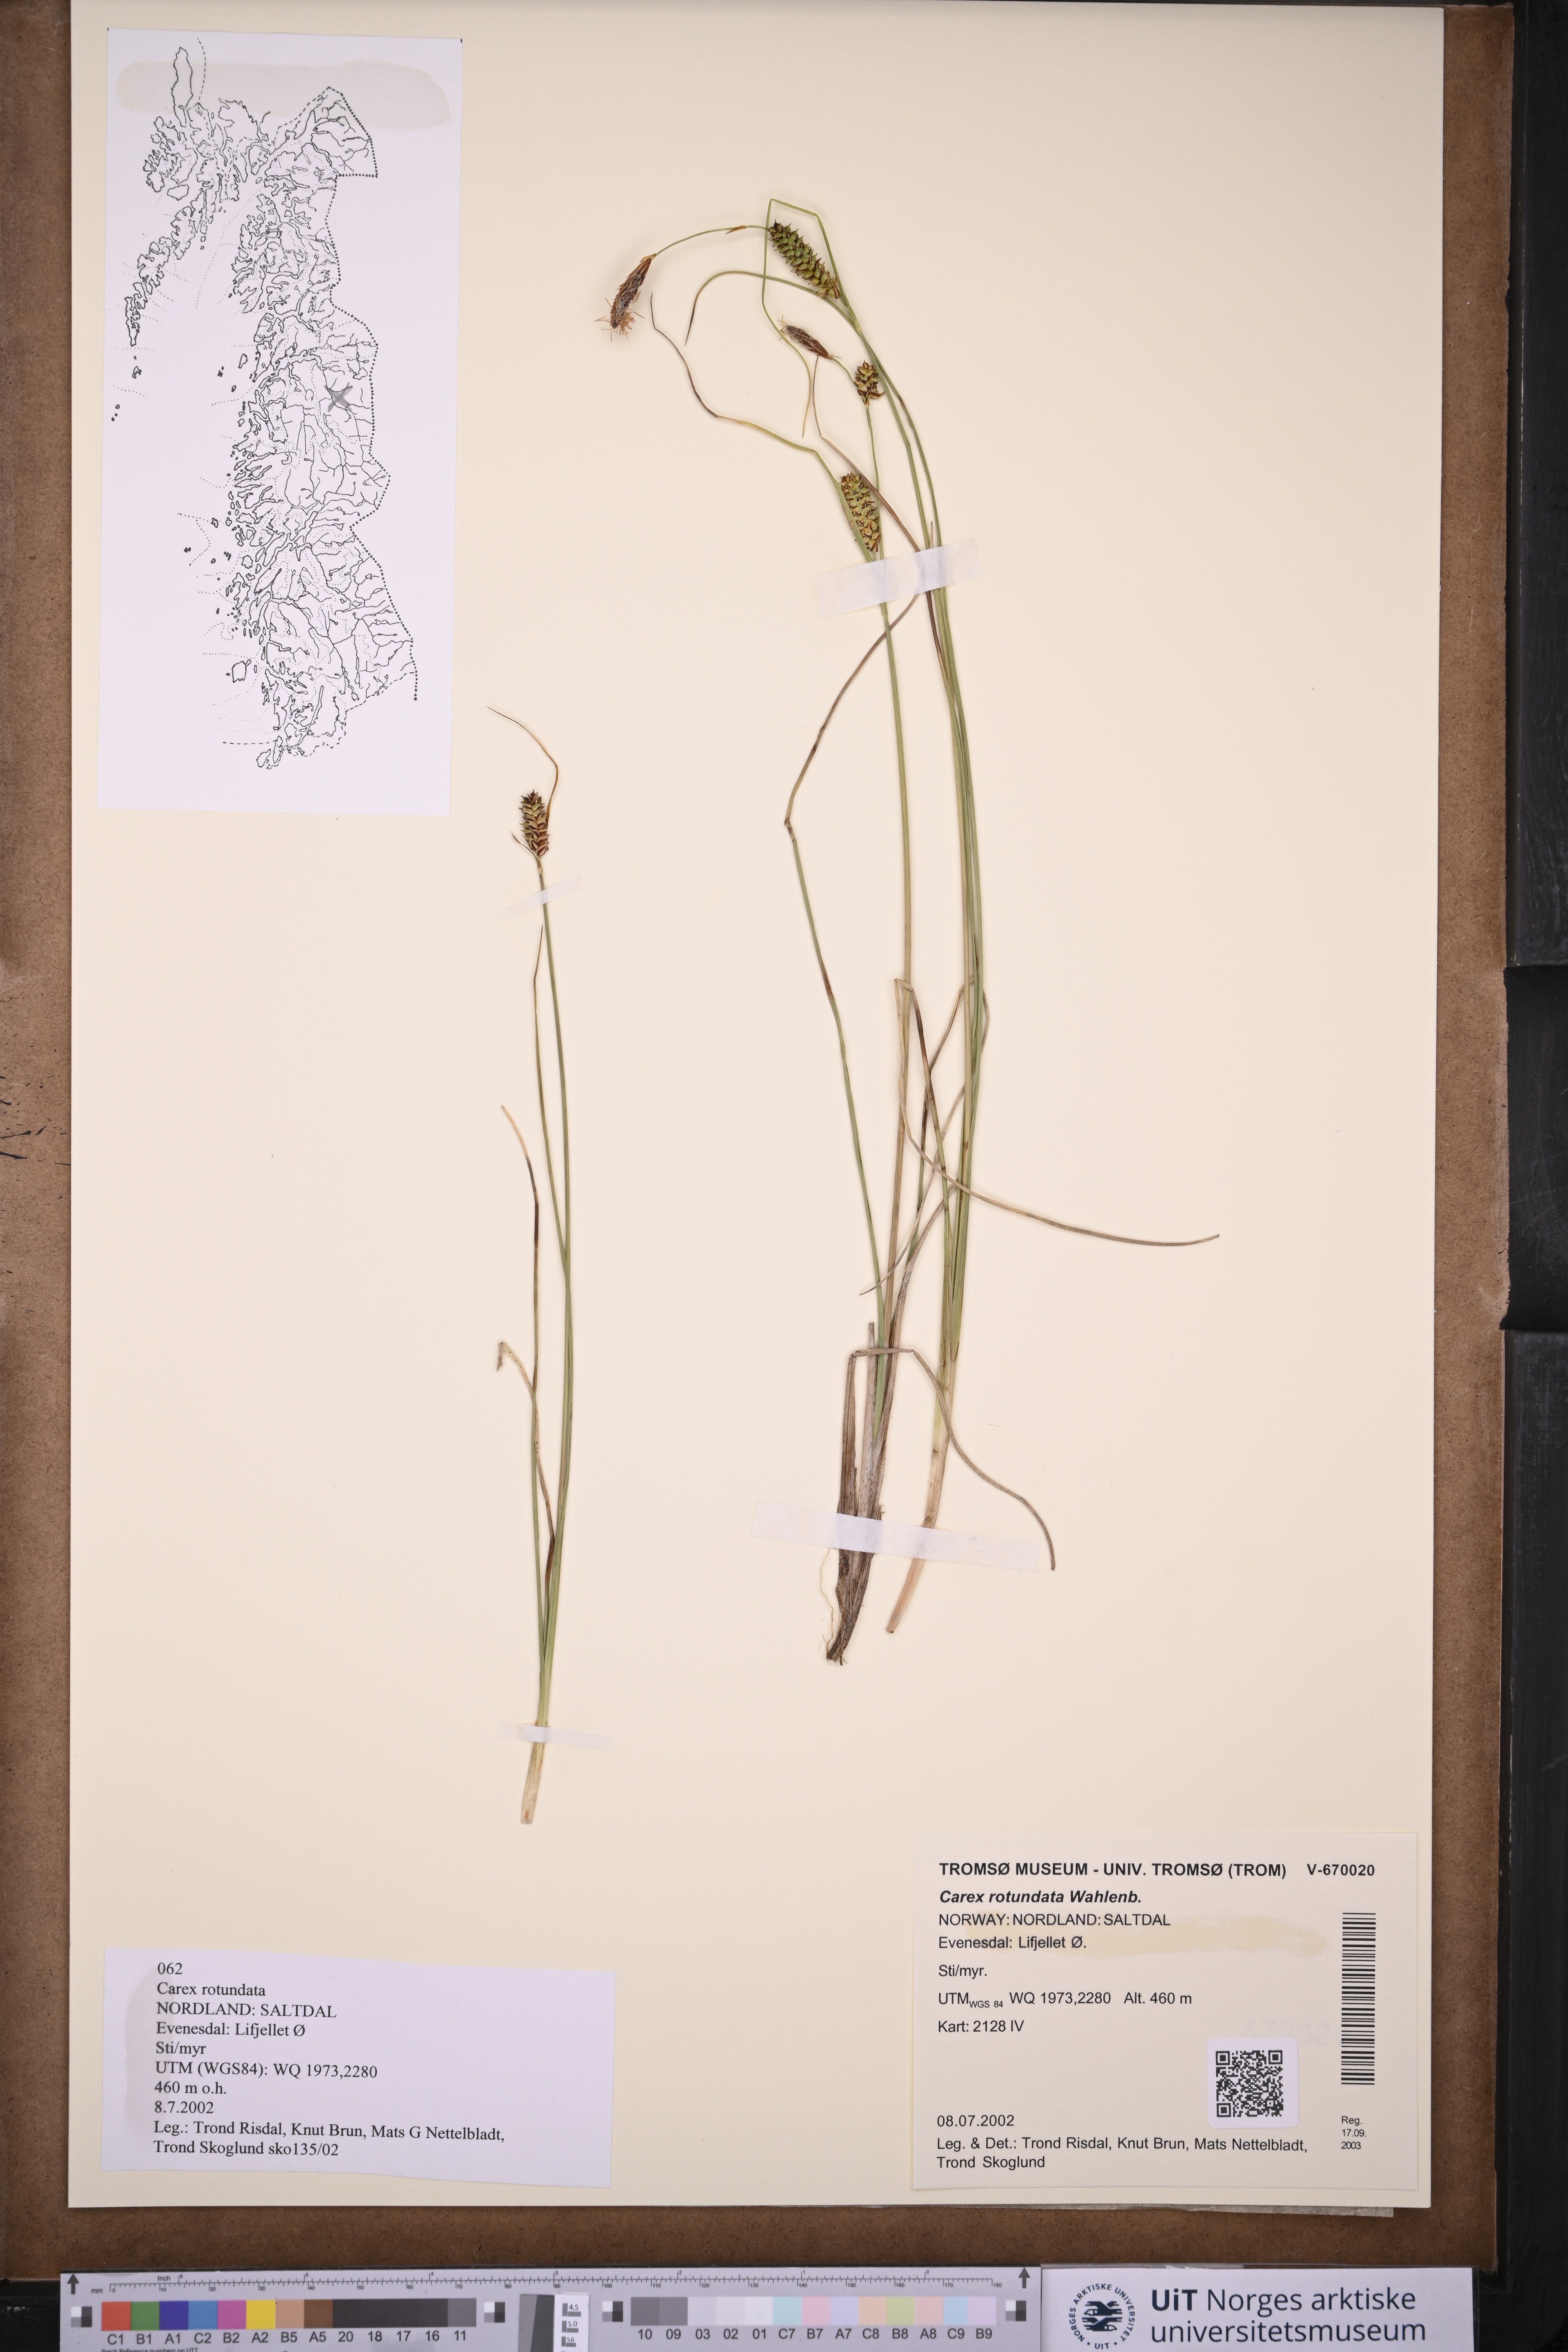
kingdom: Plantae
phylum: Tracheophyta
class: Liliopsida
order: Poales
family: Cyperaceae
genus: Carex
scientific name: Carex rotundata
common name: Round-fruited sedge
